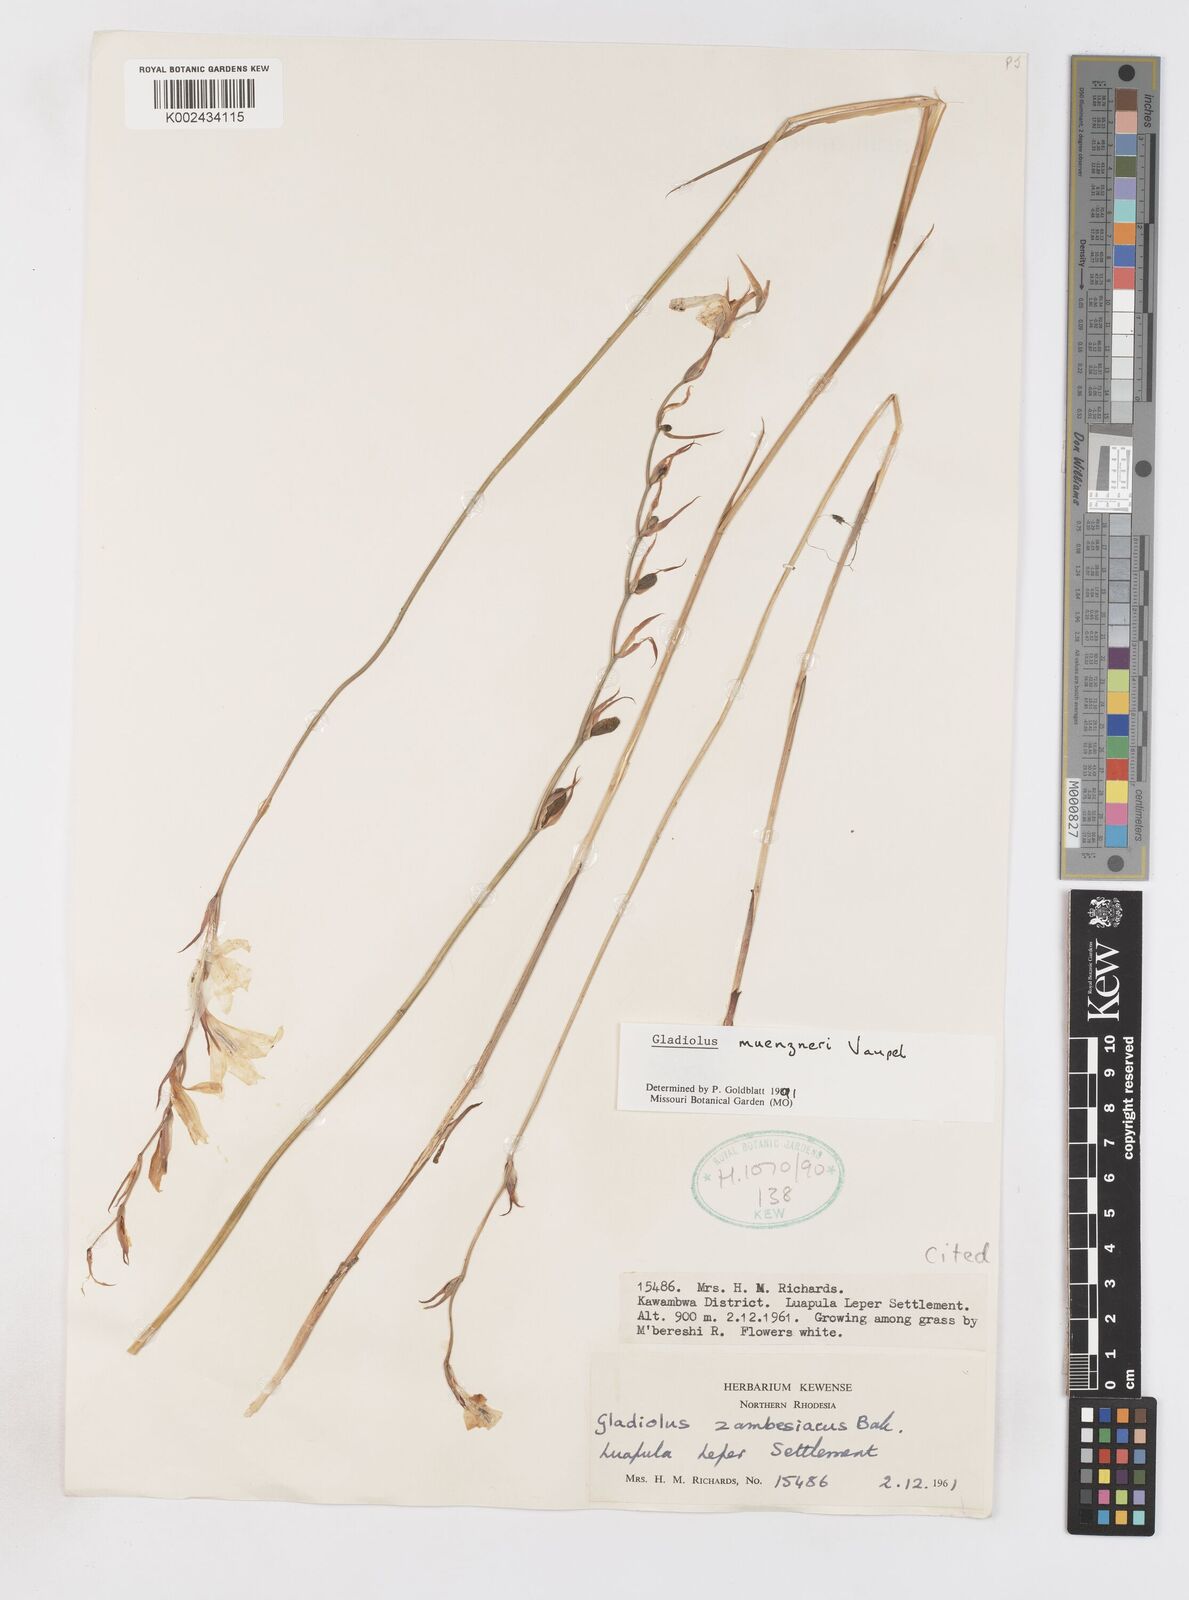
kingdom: Plantae
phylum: Tracheophyta
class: Liliopsida
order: Asparagales
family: Iridaceae
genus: Gladiolus
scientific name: Gladiolus muenzneri
